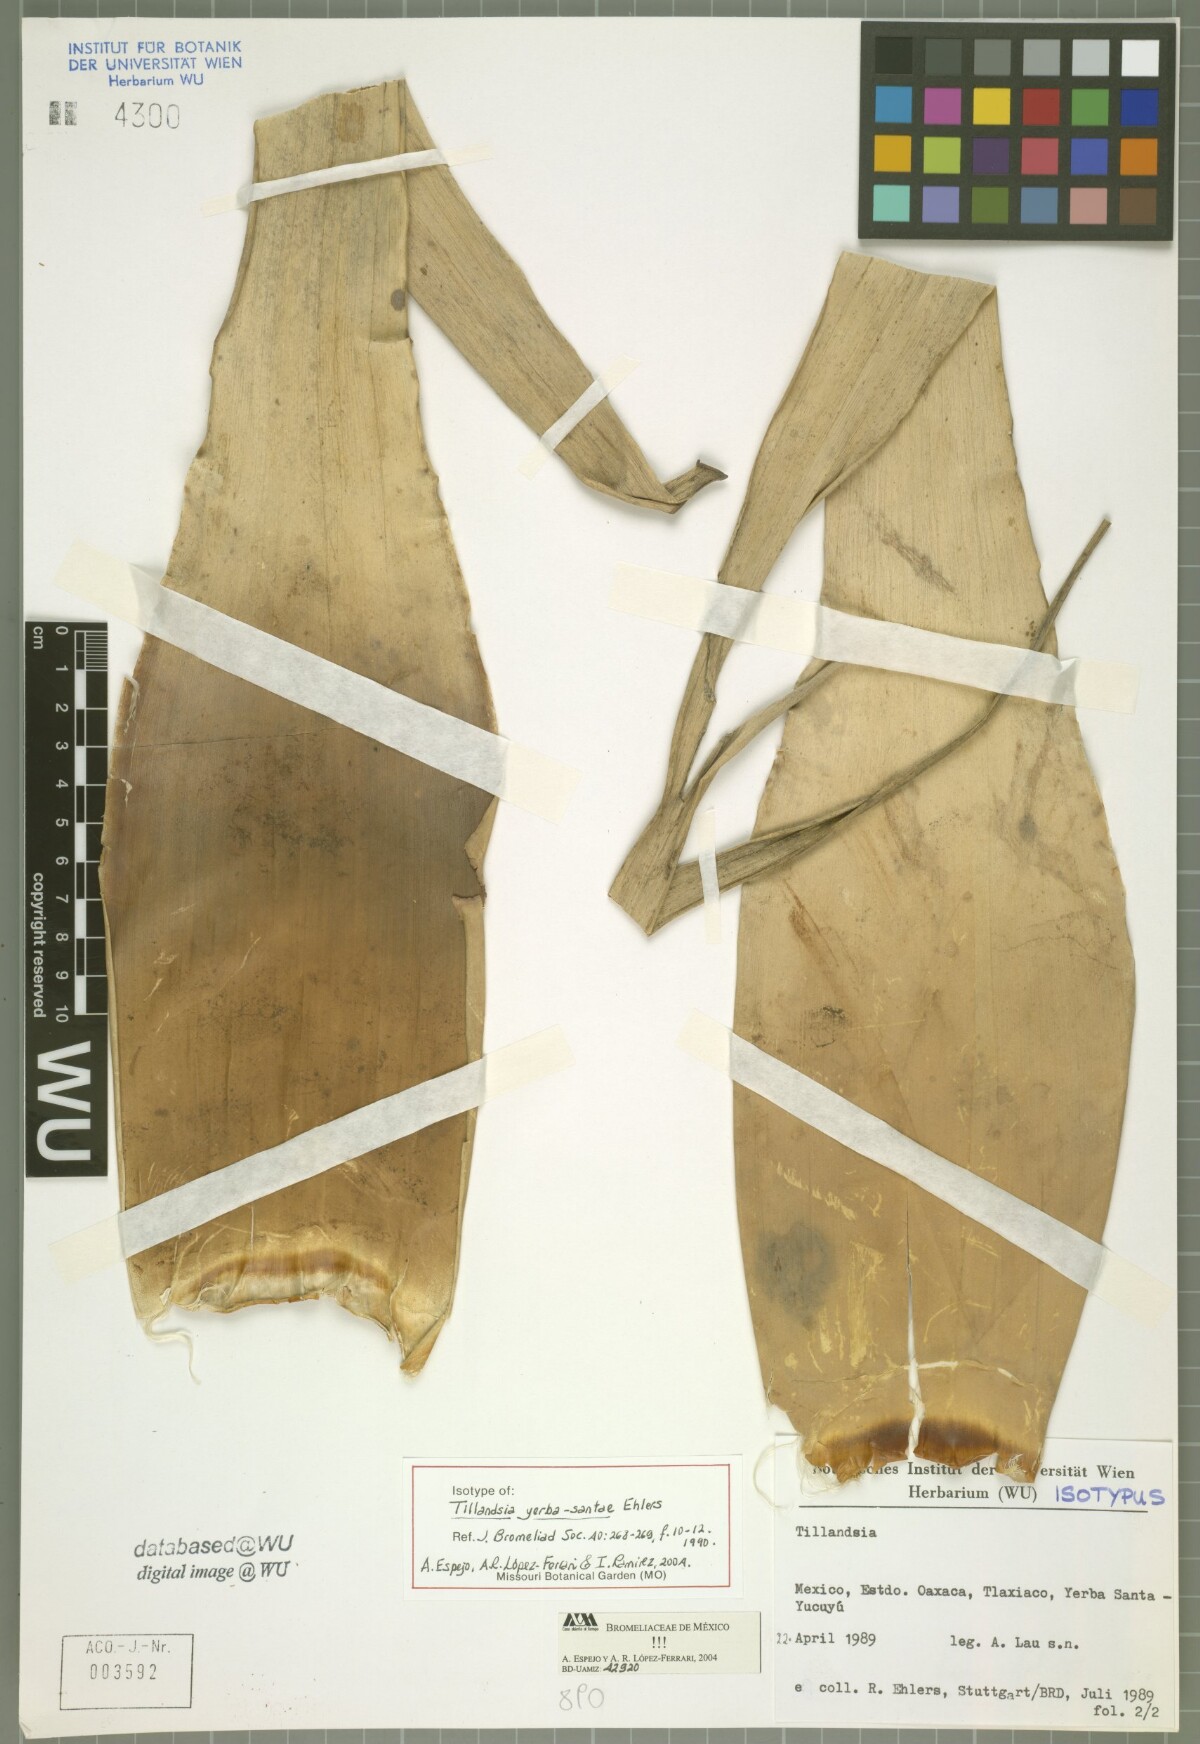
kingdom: Plantae
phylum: Tracheophyta
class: Liliopsida
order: Poales
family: Bromeliaceae
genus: Tillandsia
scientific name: Tillandsia yerba-santae
